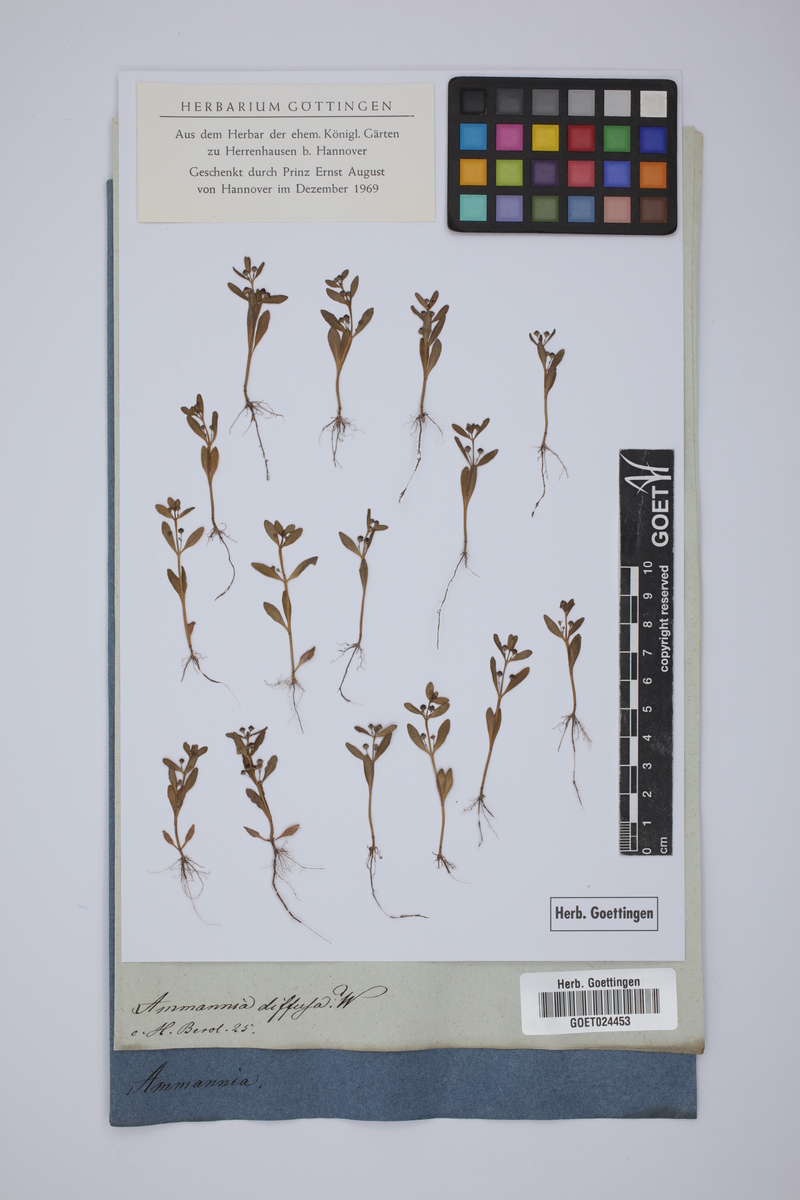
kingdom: Plantae
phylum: Tracheophyta
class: Magnoliopsida
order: Myrtales
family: Lythraceae
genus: Ammannia
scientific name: Ammannia senegalensis
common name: Red ammannia
